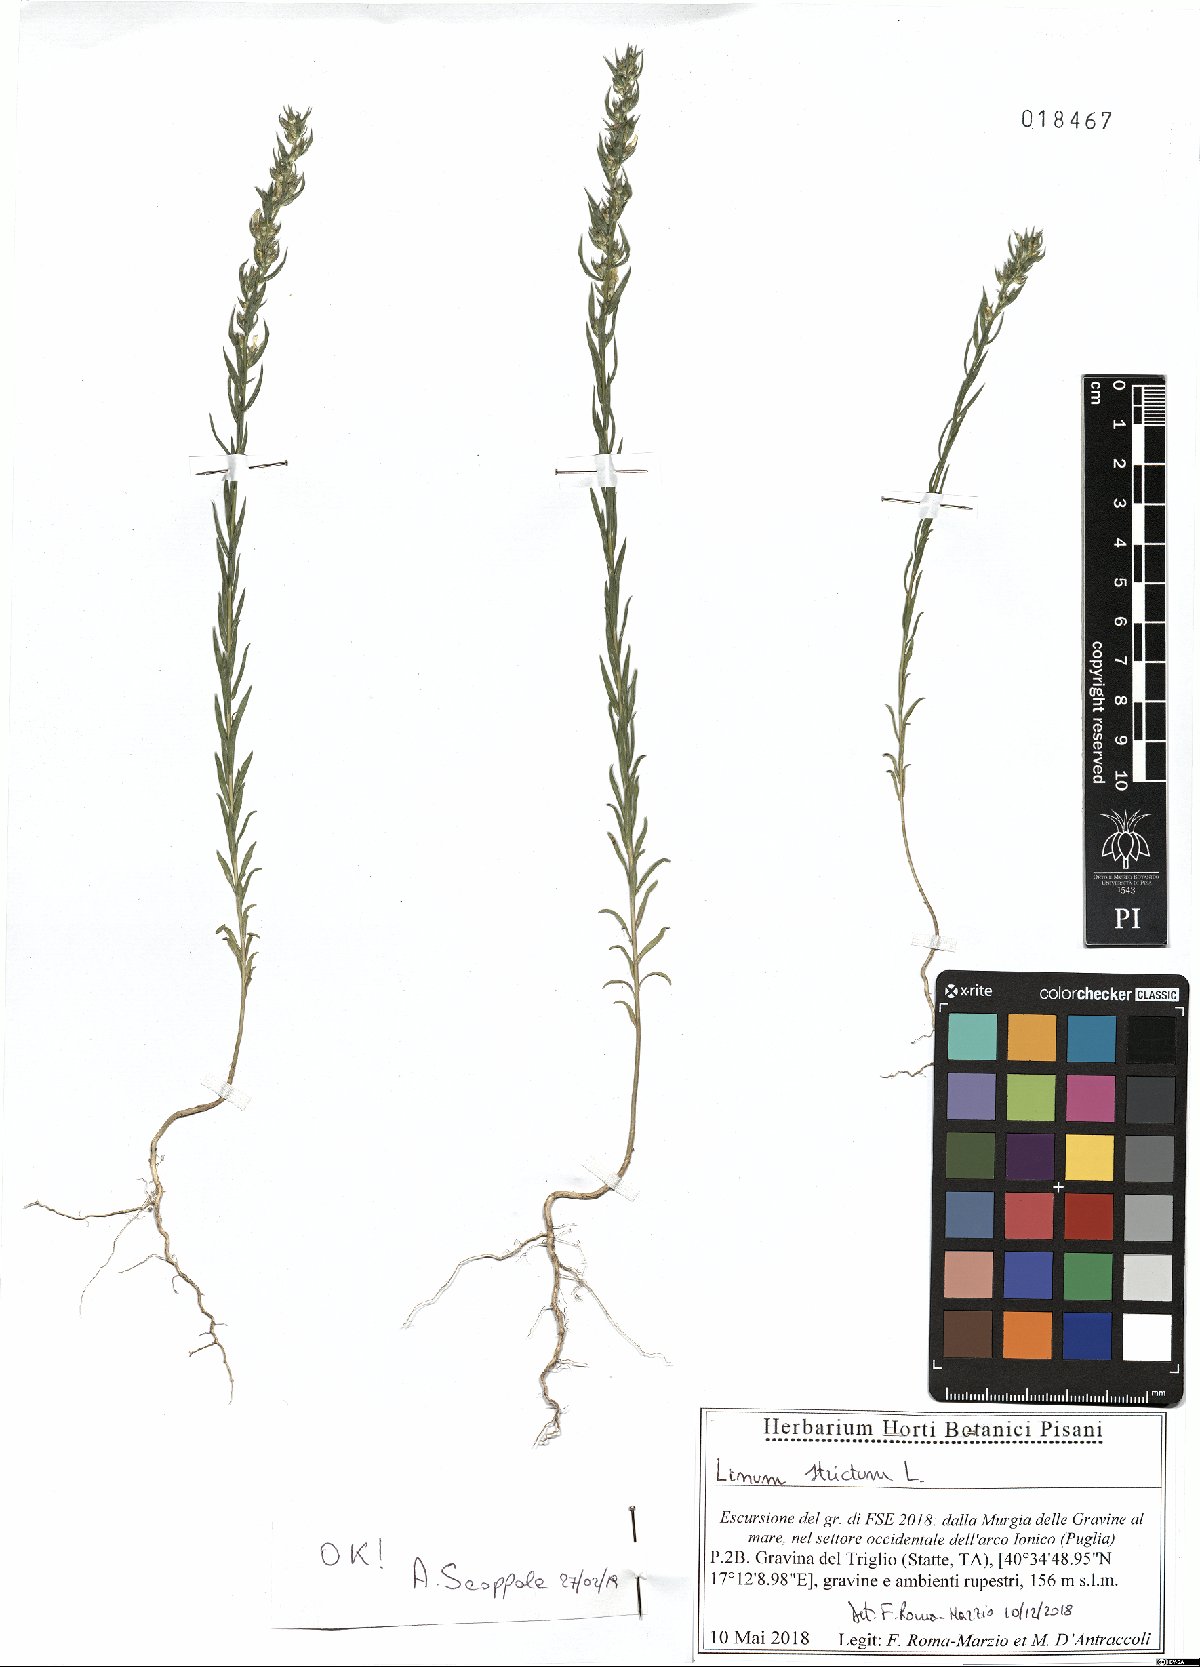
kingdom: Plantae
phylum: Tracheophyta
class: Magnoliopsida
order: Malpighiales
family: Linaceae
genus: Linum
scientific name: Linum strictum
